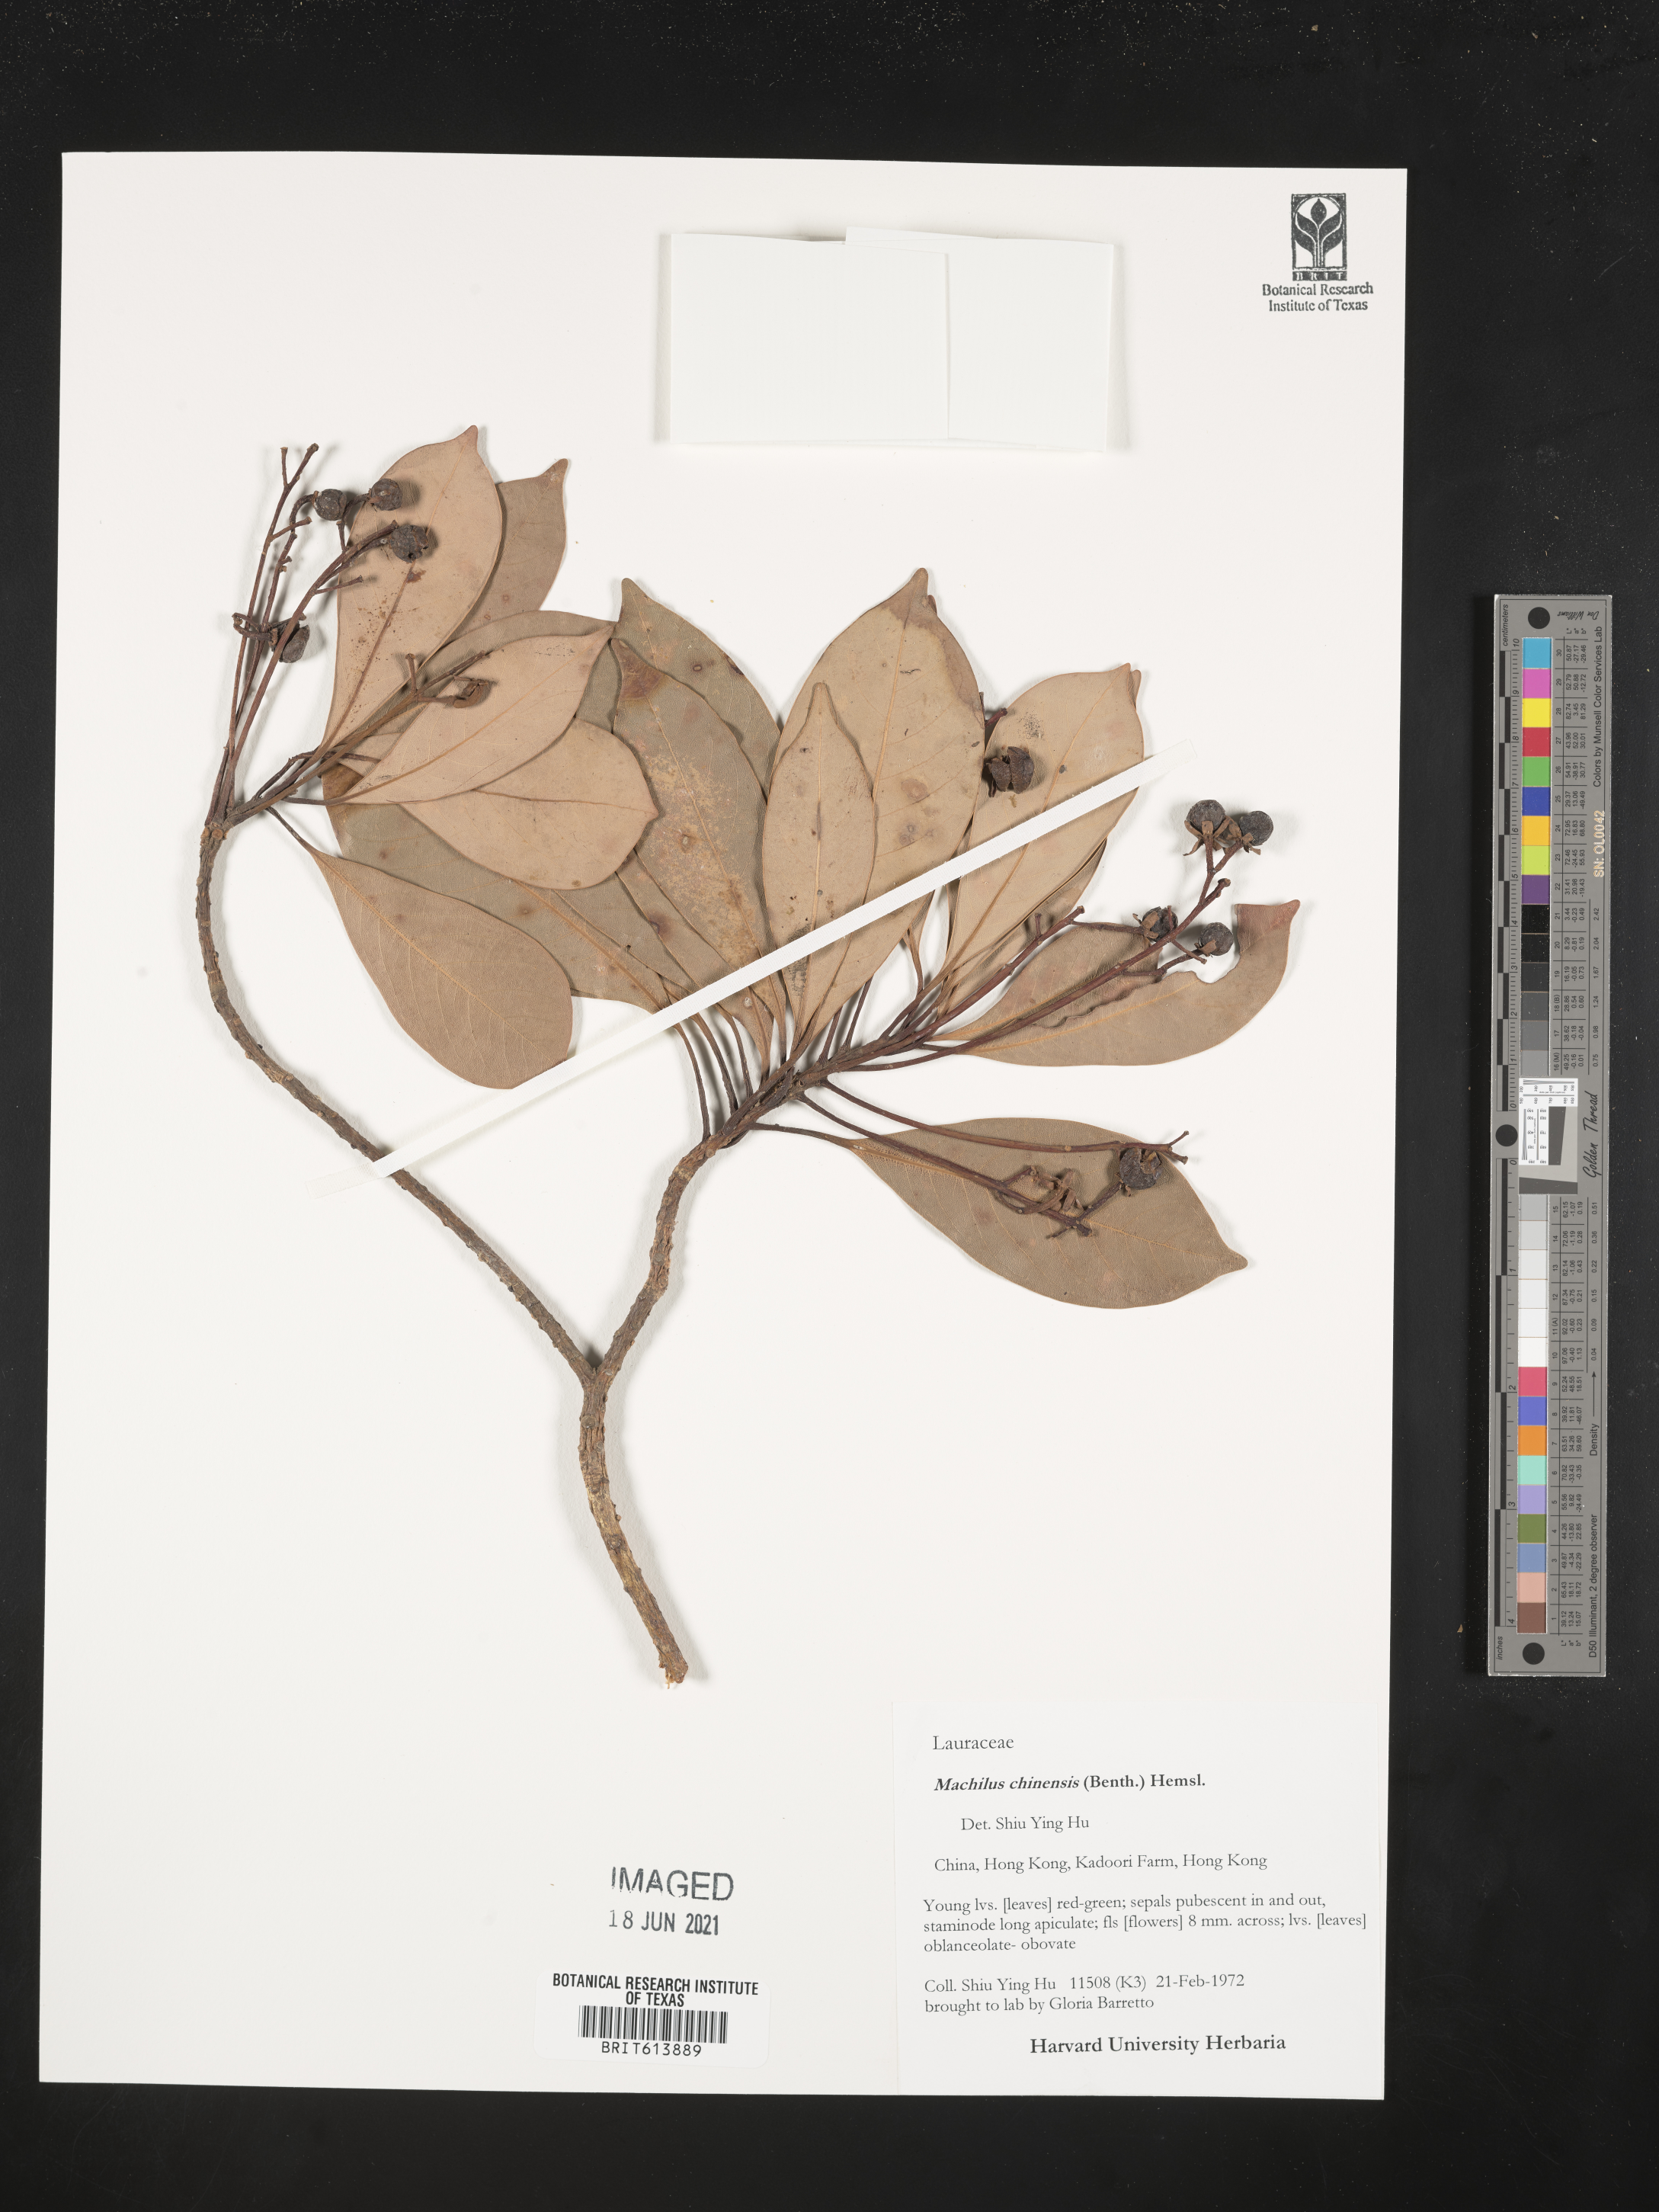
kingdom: Plantae
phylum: Tracheophyta
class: Magnoliopsida
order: Laurales
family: Lauraceae
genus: Machilus
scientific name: Machilus chinensis
